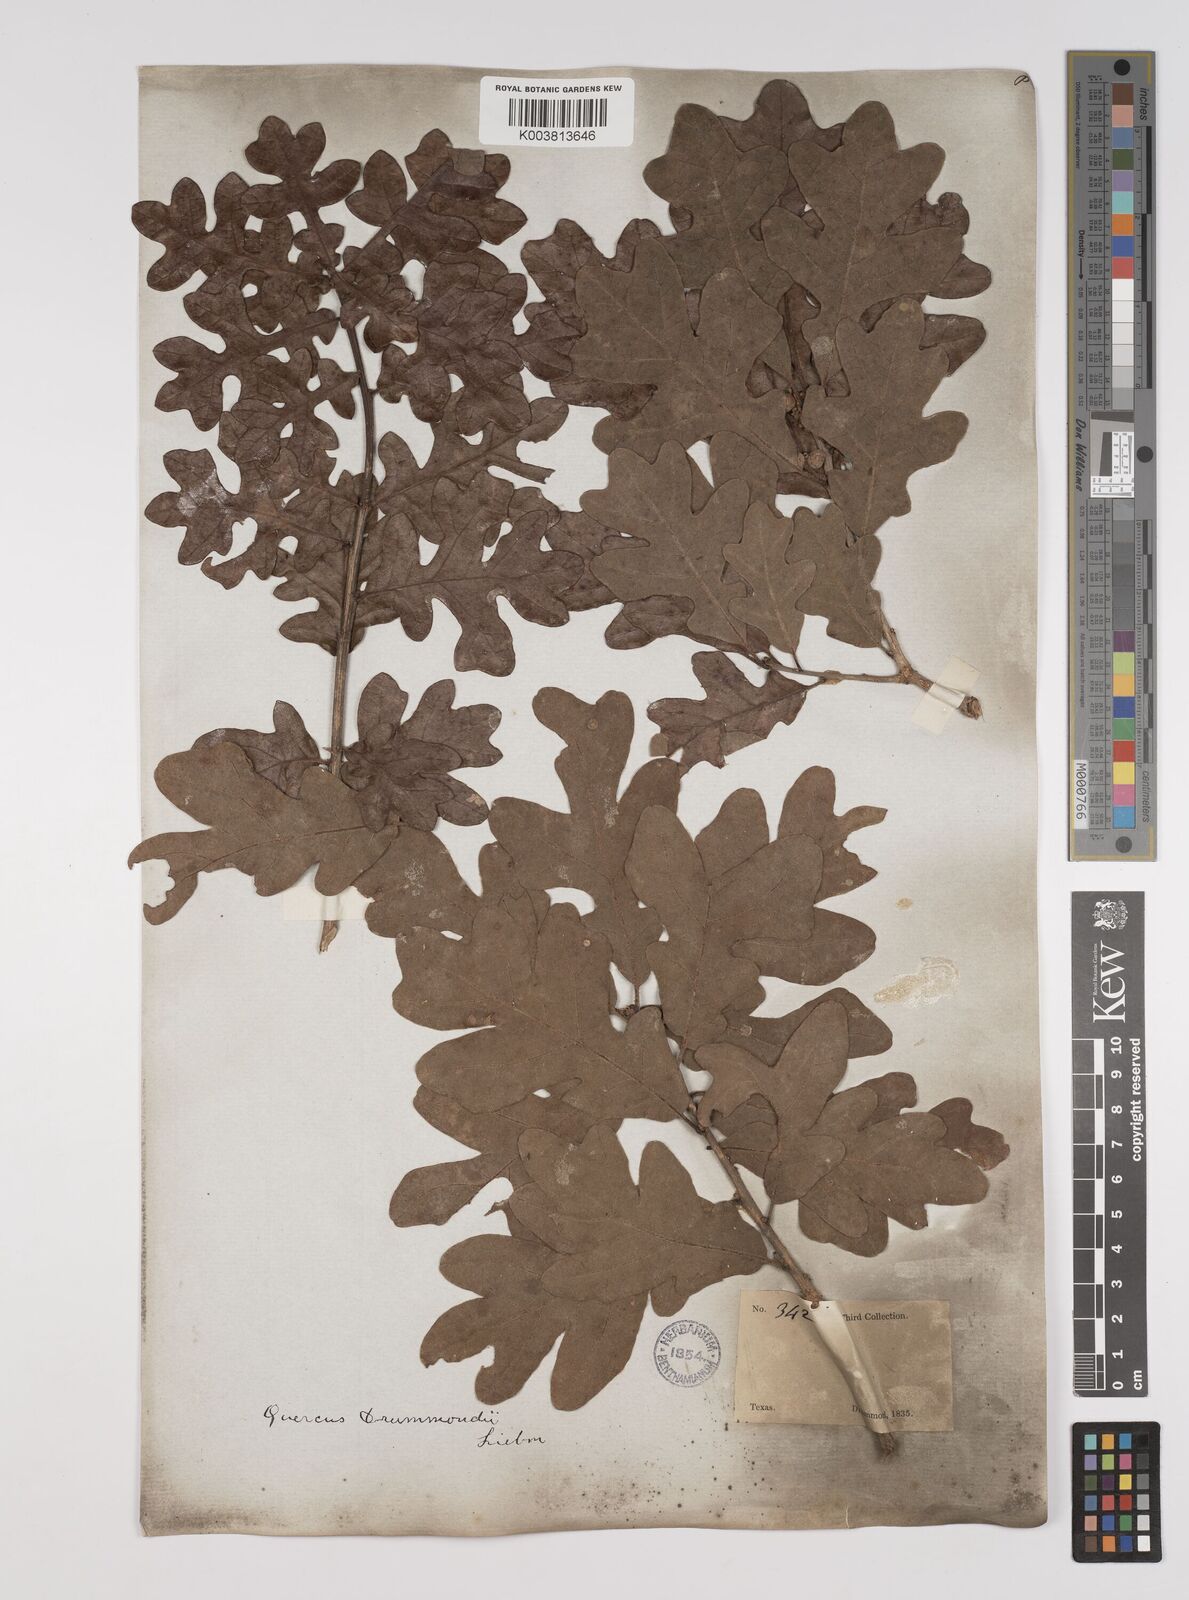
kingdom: Plantae
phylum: Tracheophyta
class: Magnoliopsida
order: Fagales
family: Fagaceae
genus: Quercus
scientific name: Quercus stellata
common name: Post oak
